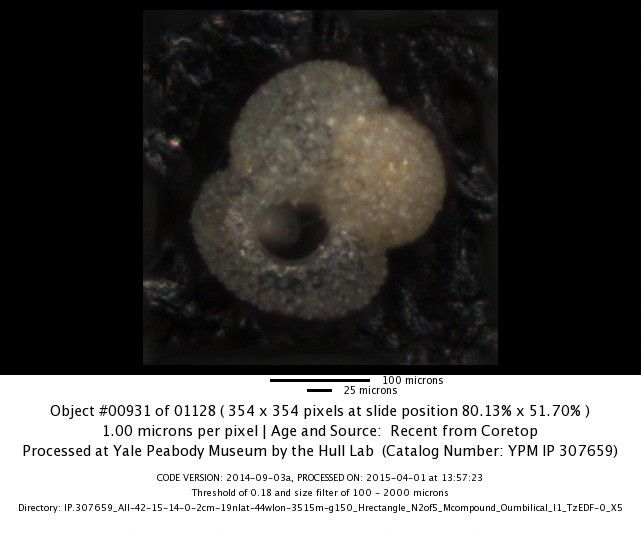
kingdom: Chromista
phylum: Foraminifera
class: Globothalamea
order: Rotaliida
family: Globigerinidae
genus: Globigerinoides
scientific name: Globigerinoides ruber
